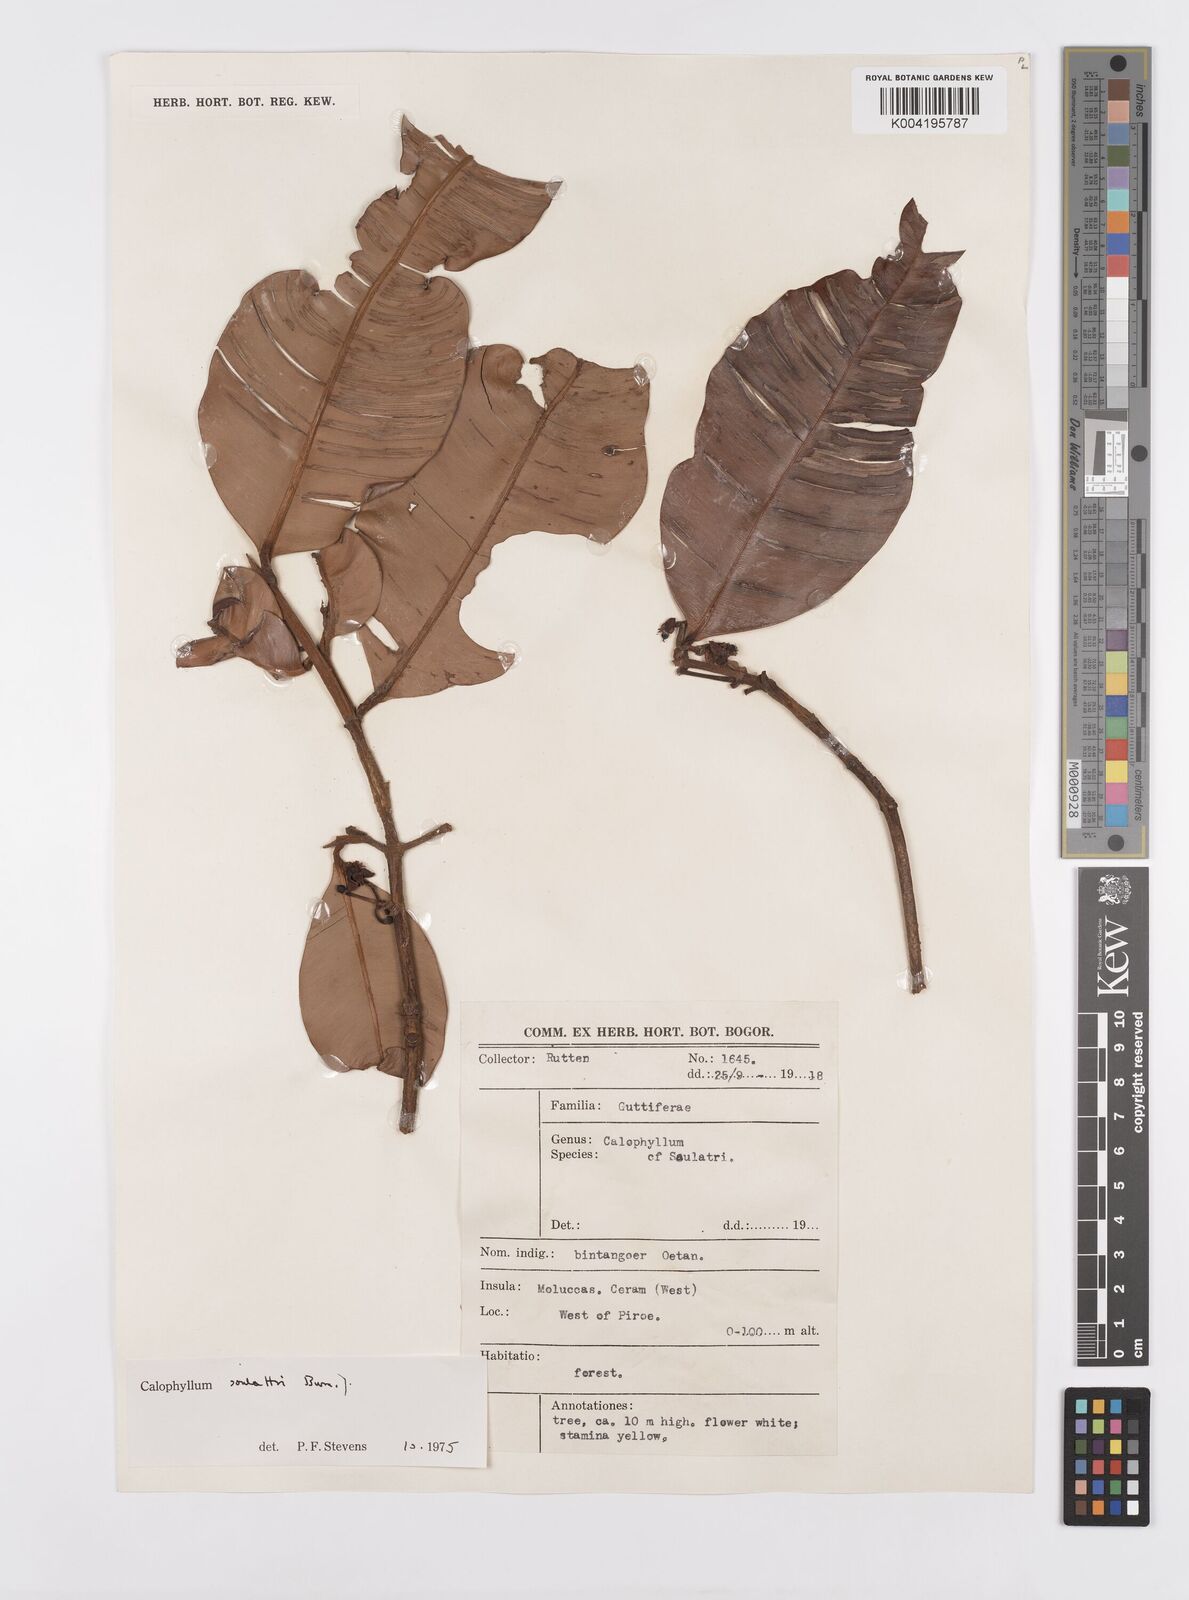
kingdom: Plantae
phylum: Tracheophyta
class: Magnoliopsida
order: Malpighiales
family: Calophyllaceae
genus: Calophyllum
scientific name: Calophyllum soulattri
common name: Bitangoor boonot
